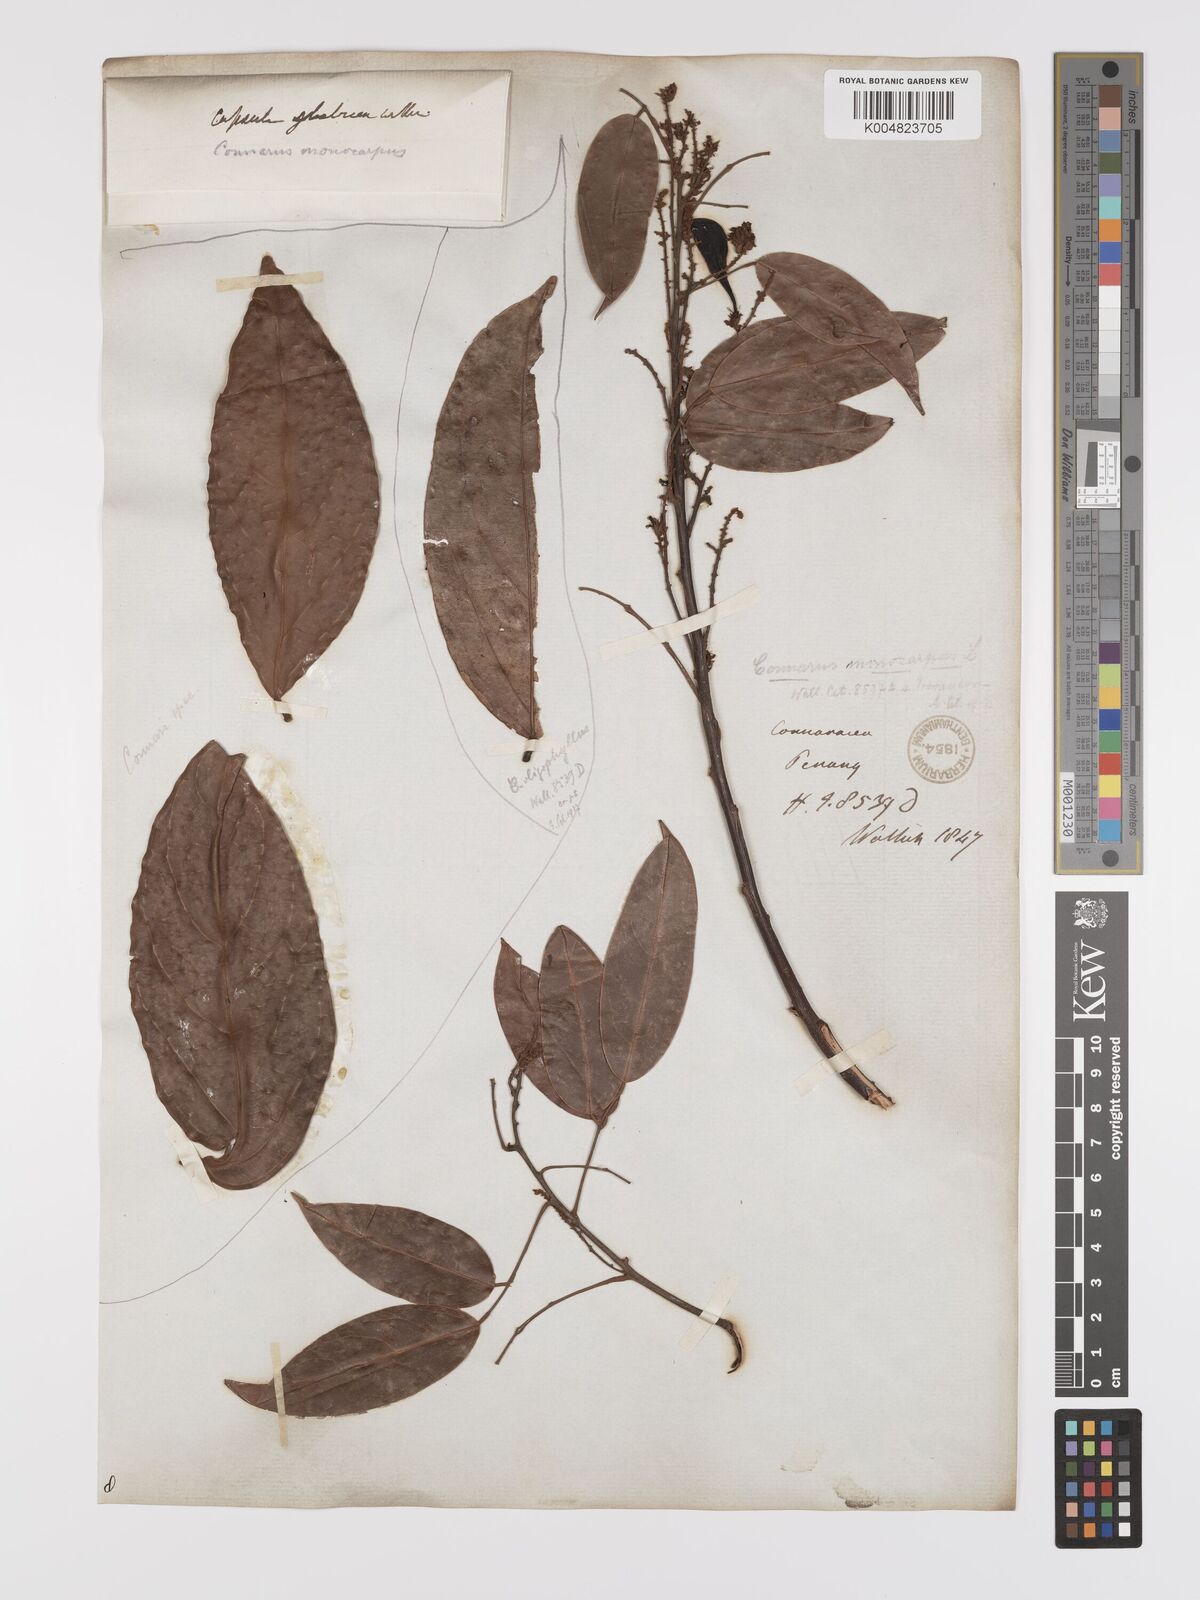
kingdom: Plantae
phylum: Tracheophyta
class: Magnoliopsida
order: Oxalidales
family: Connaraceae
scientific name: Connaraceae
